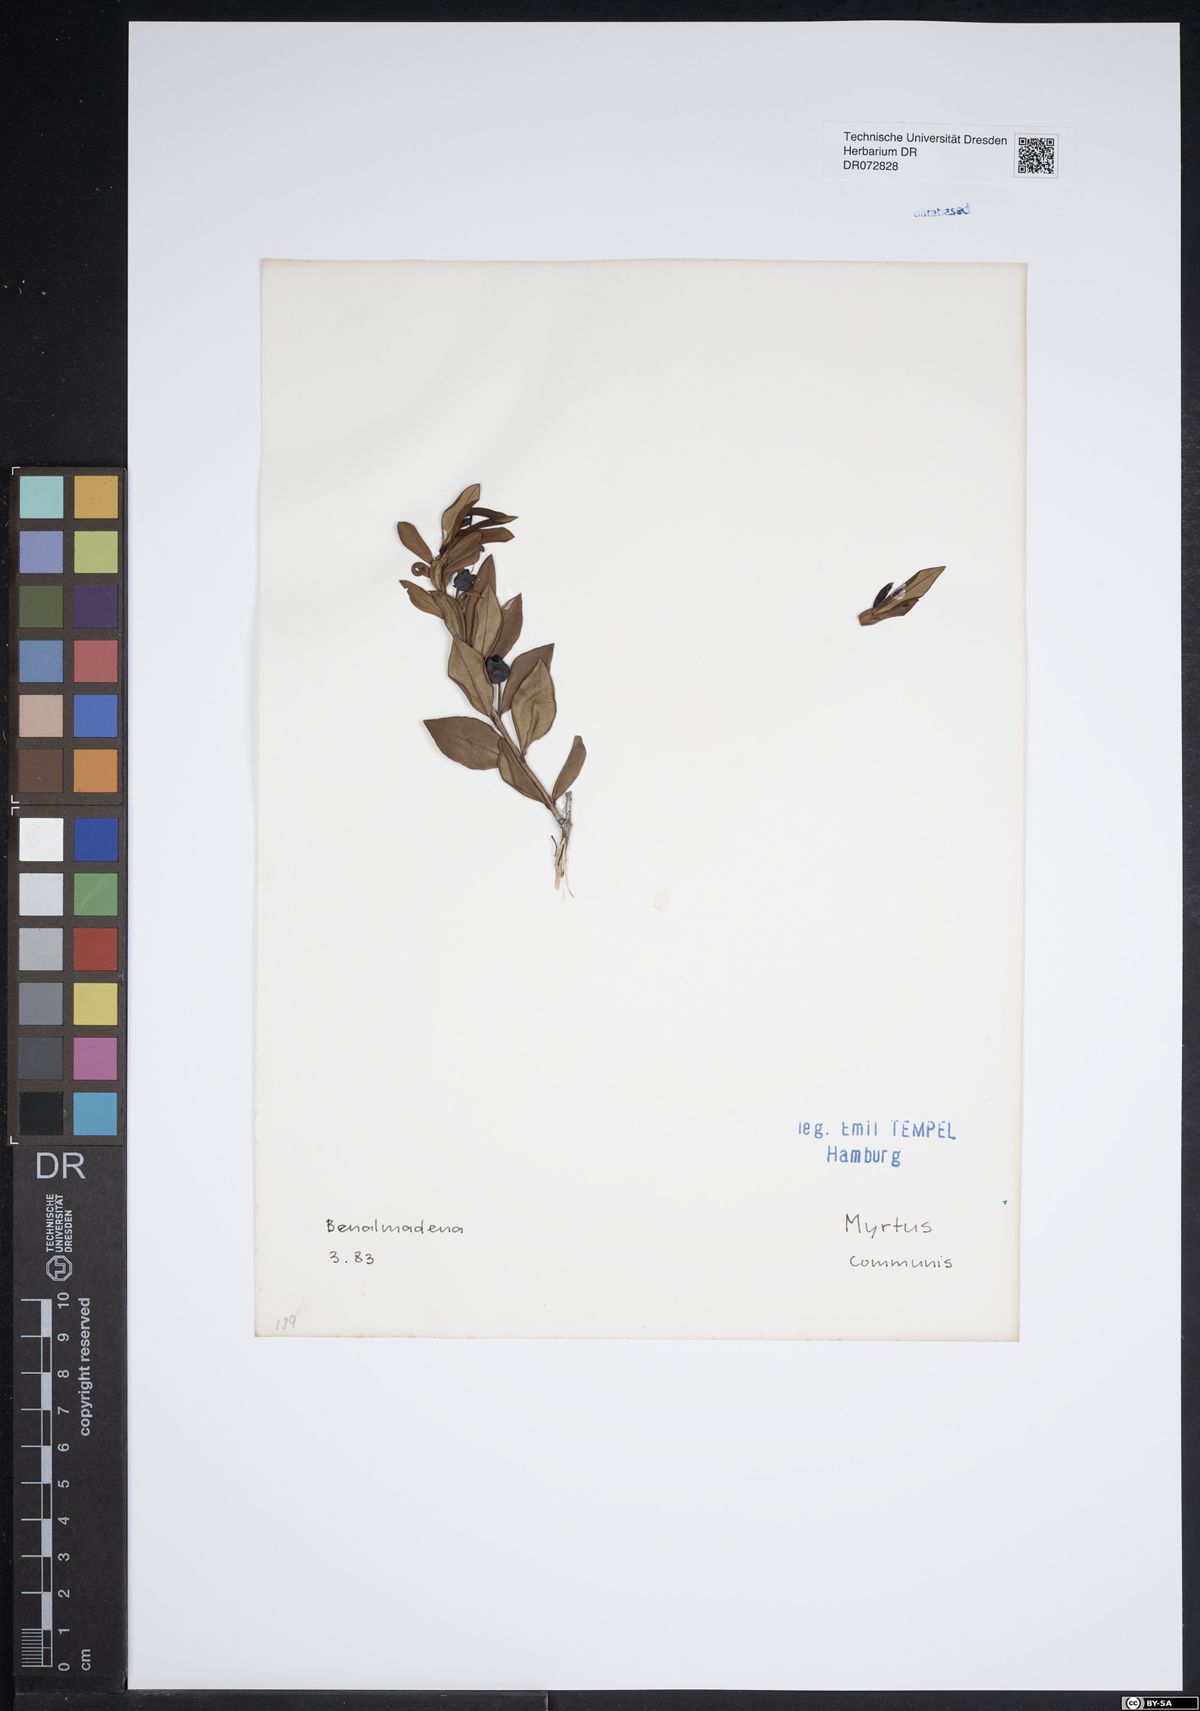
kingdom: Plantae
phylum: Tracheophyta
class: Magnoliopsida
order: Myrtales
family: Myrtaceae
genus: Myrtus
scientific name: Myrtus communis
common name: Myrtle
